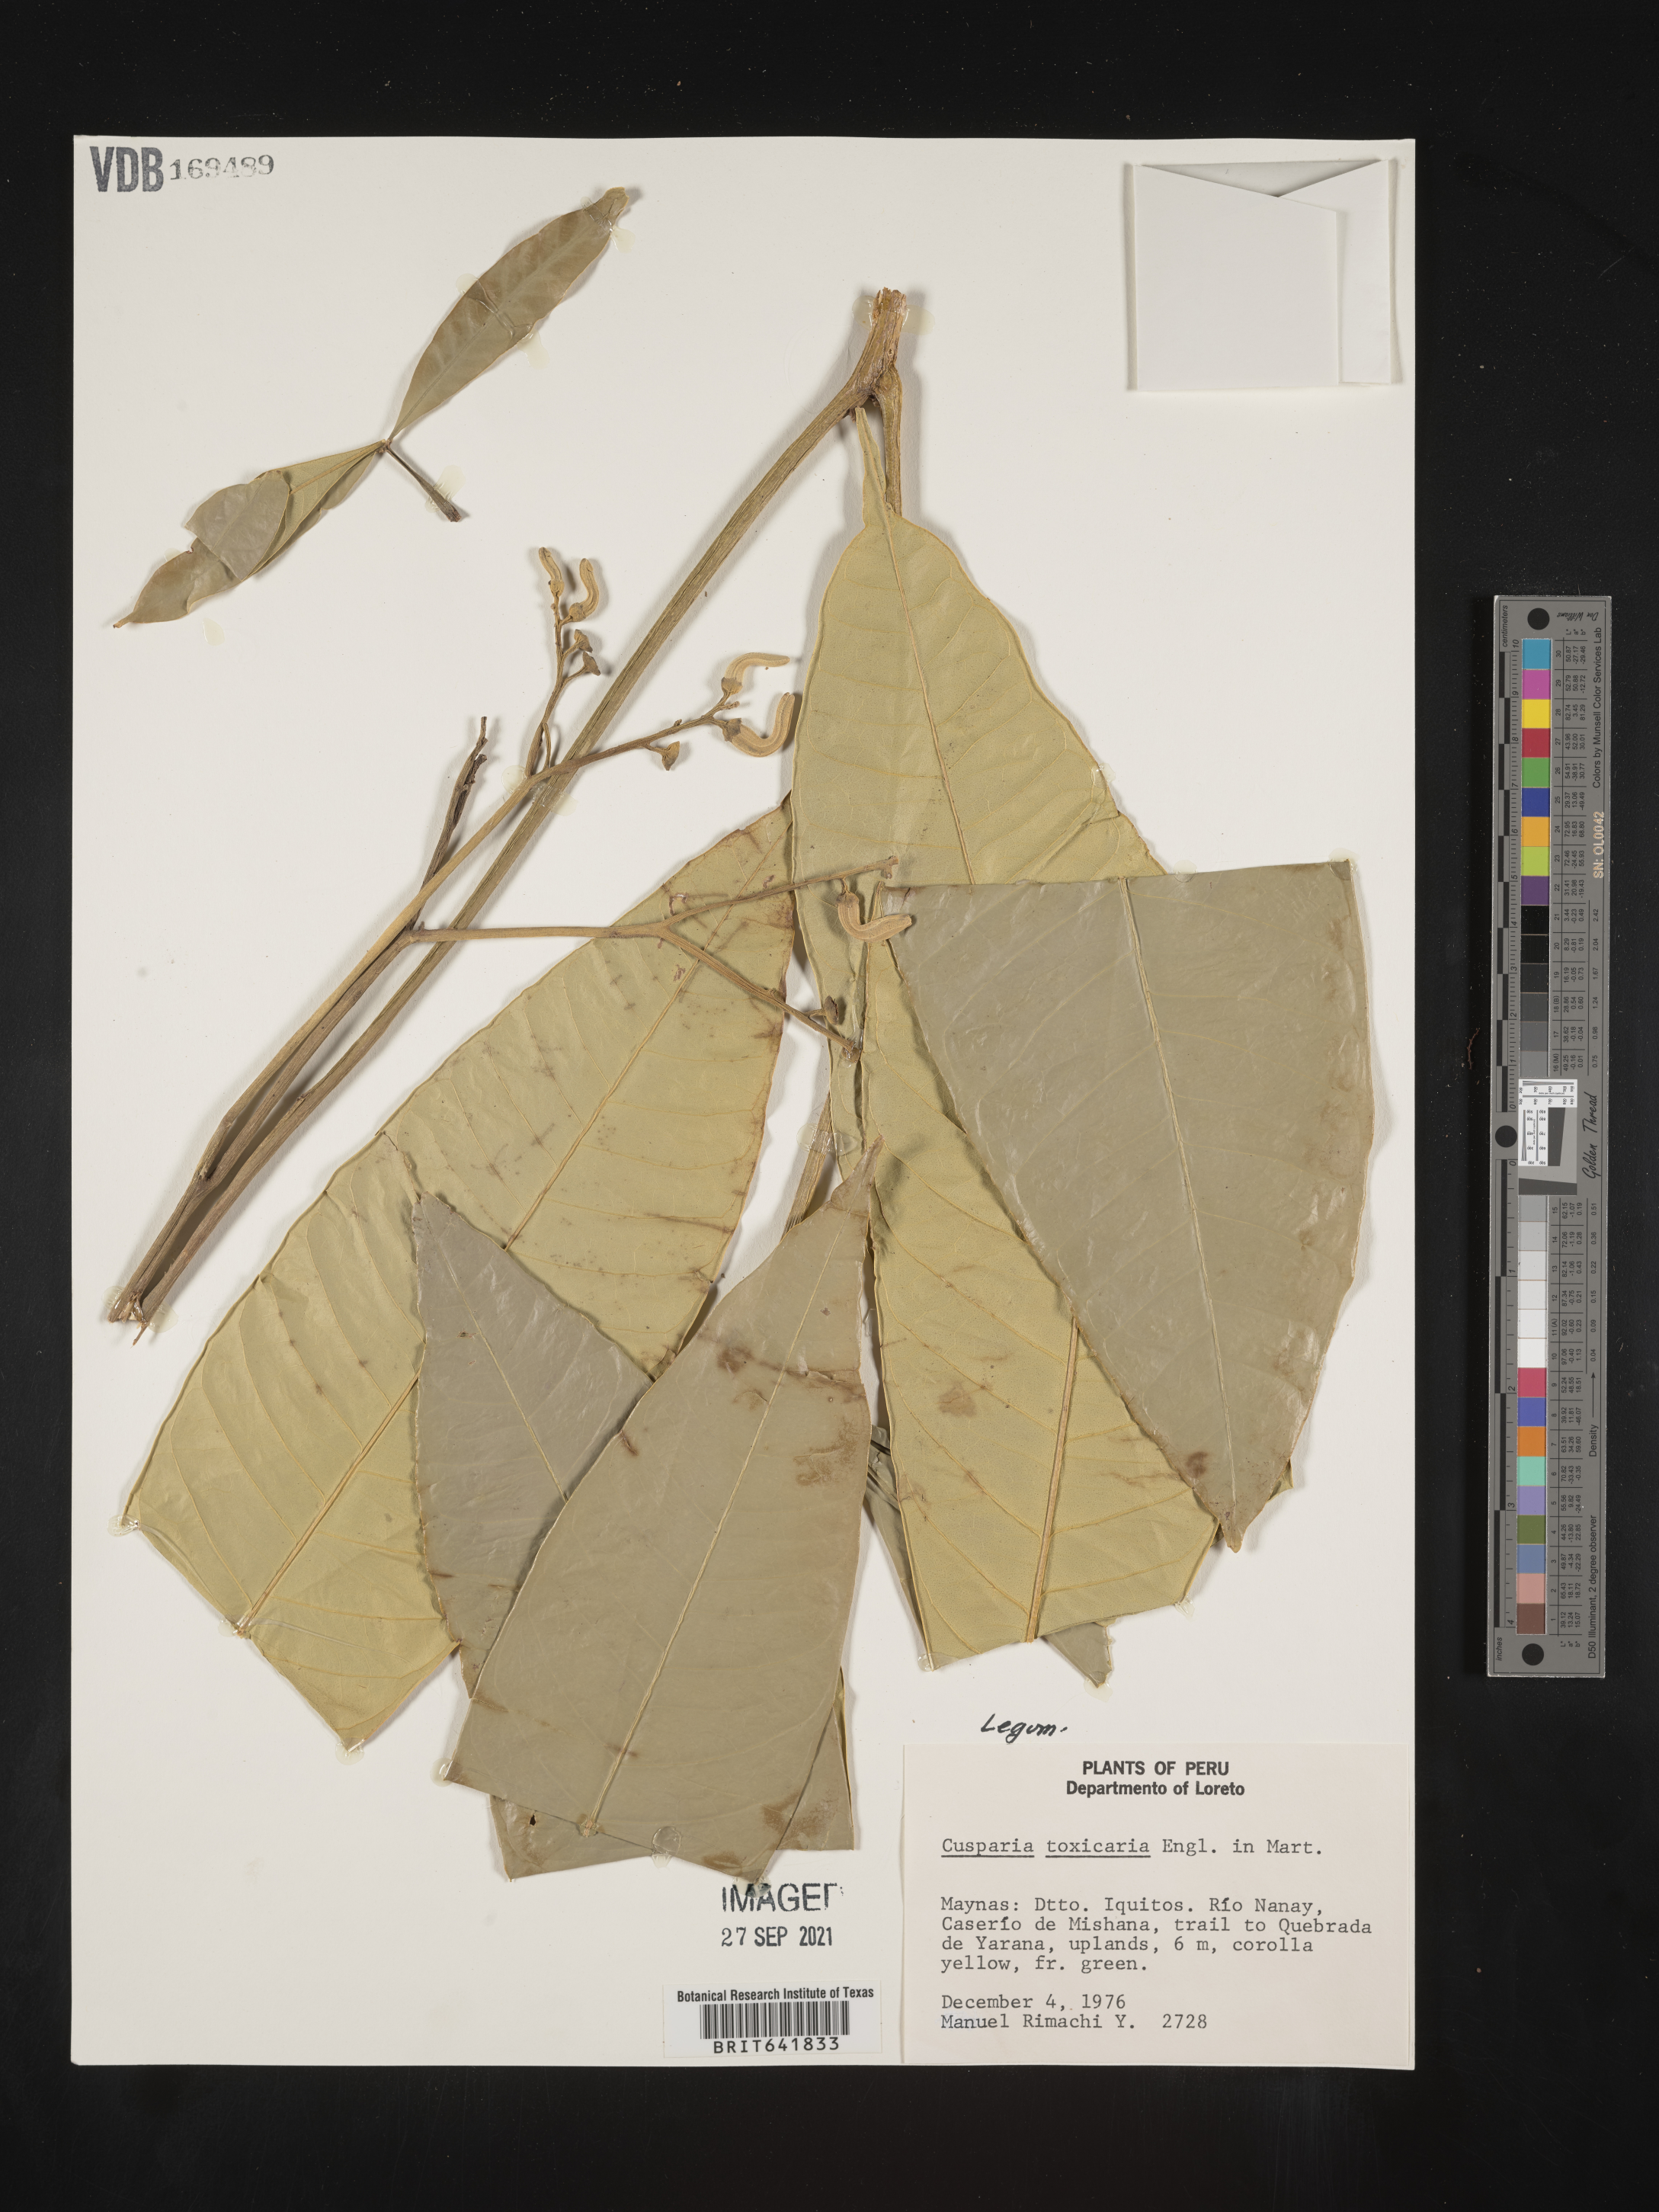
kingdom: Plantae
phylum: Tracheophyta
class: Magnoliopsida
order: Fabales
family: Fabaceae
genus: Cusparia
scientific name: Cusparia
